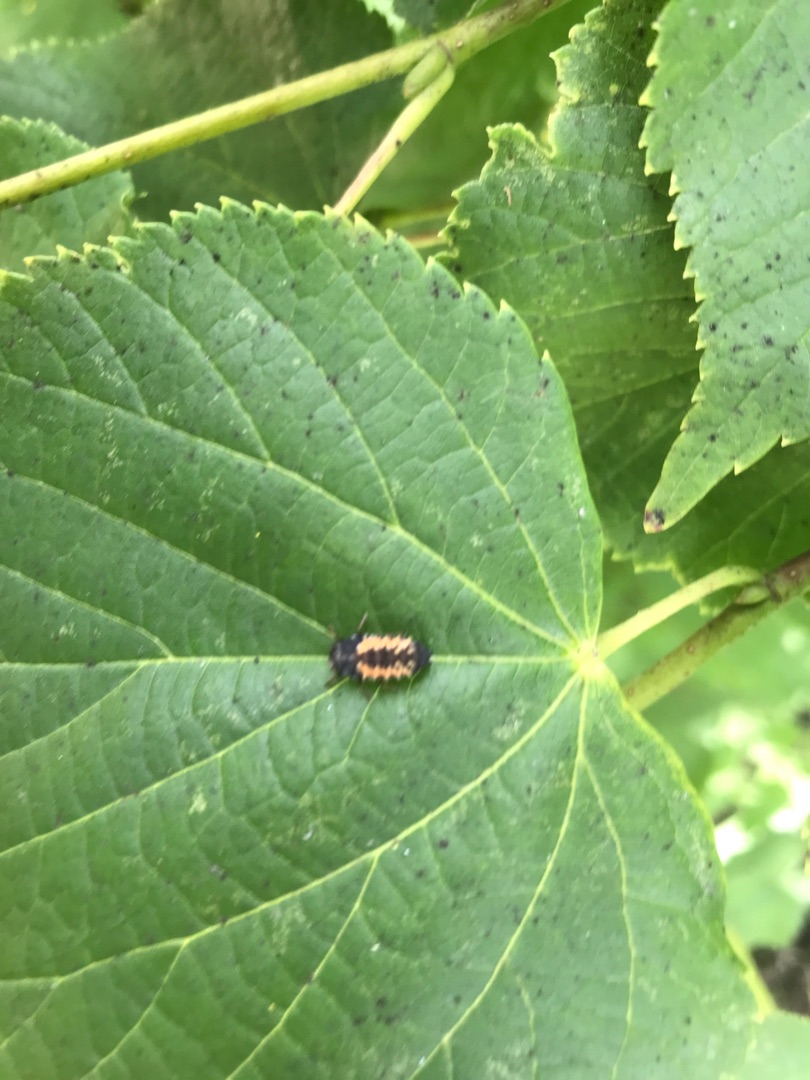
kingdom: Animalia
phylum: Arthropoda
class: Insecta
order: Coleoptera
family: Coccinellidae
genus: Harmonia
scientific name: Harmonia axyridis
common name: Harlekinmariehøne
